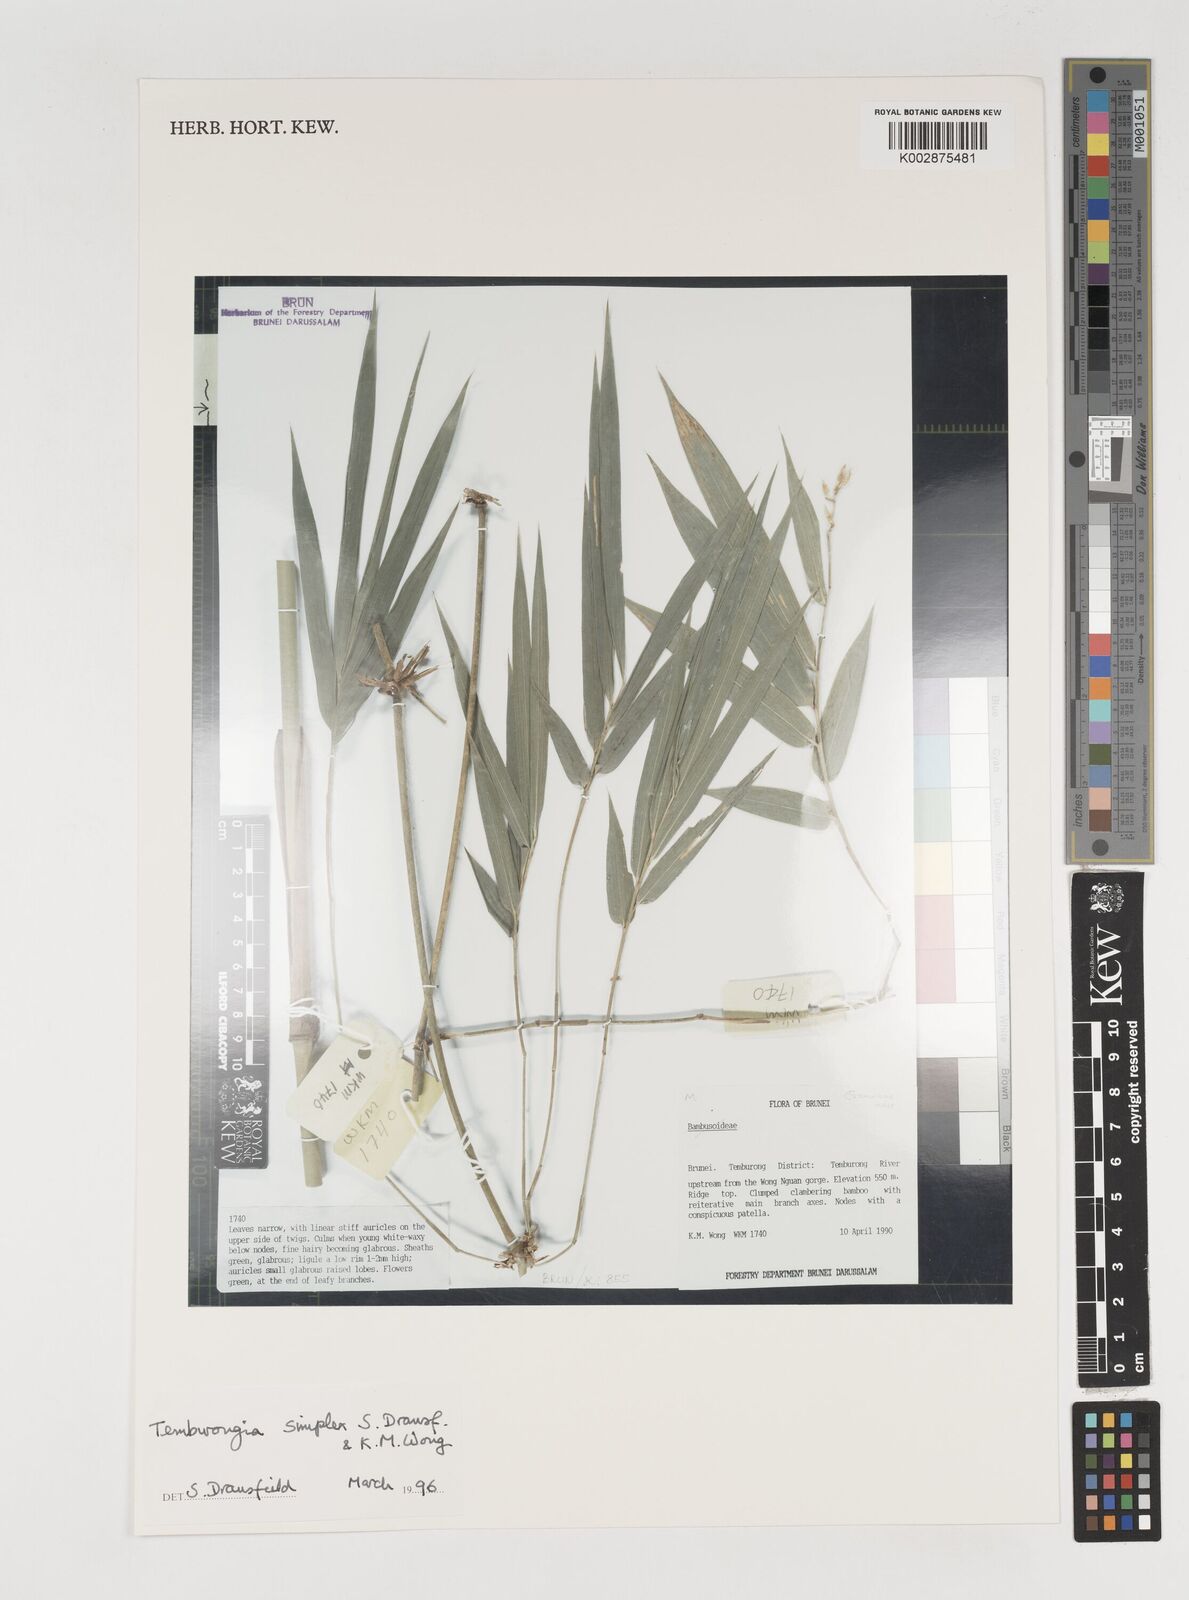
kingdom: Plantae
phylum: Tracheophyta
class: Liliopsida
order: Poales
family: Poaceae
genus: Temburongia
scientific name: Temburongia
